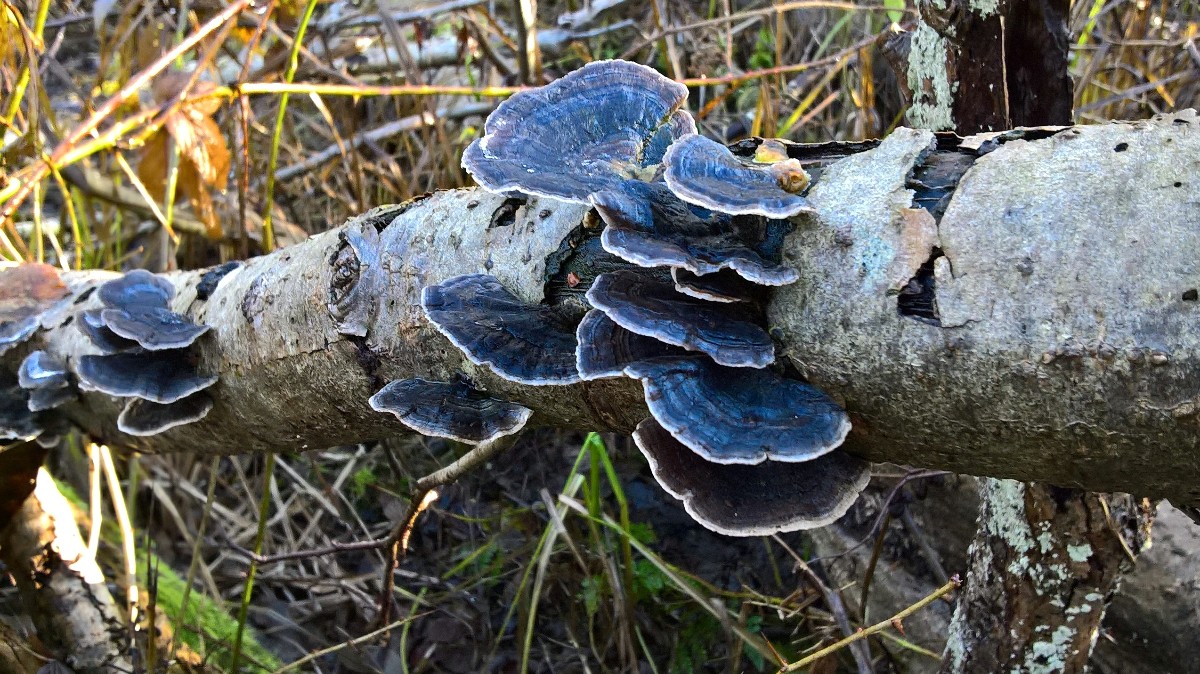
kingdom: Fungi
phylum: Basidiomycota
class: Agaricomycetes
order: Polyporales
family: Polyporaceae
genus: Trametes
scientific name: Trametes versicolor
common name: broget læderporesvamp
